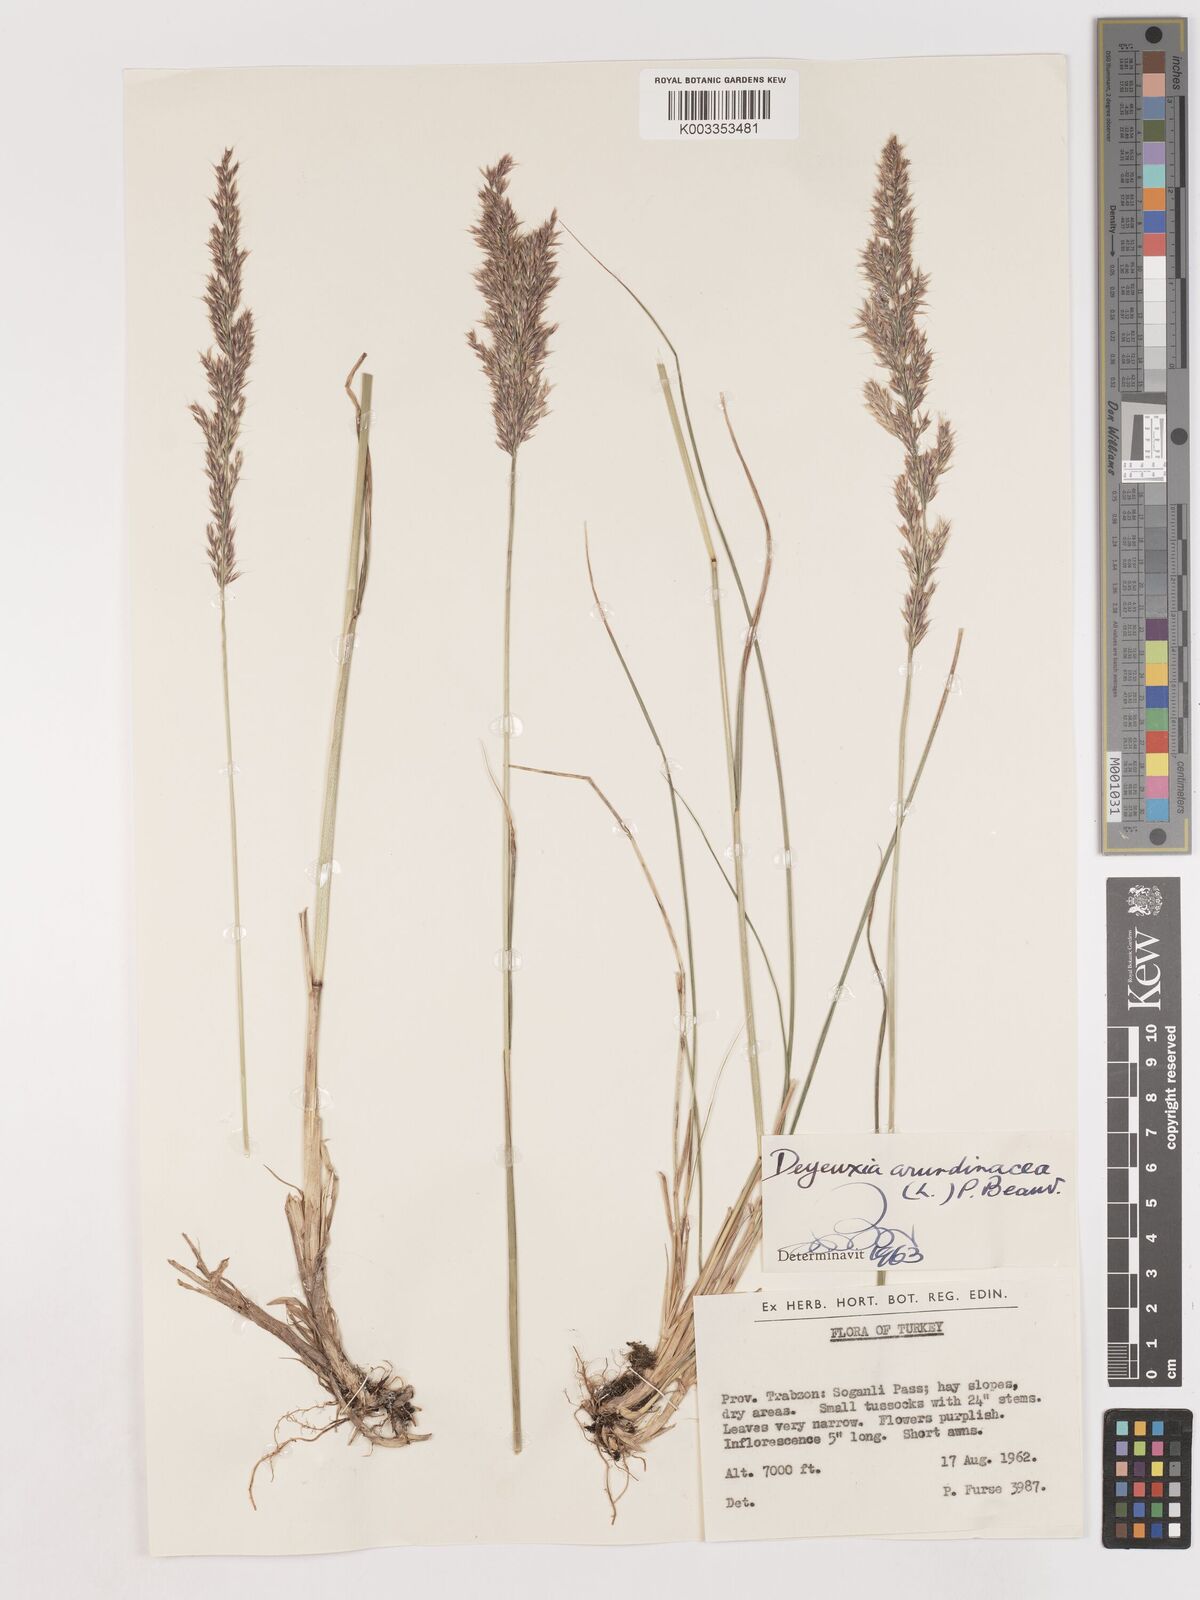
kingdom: Plantae
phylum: Tracheophyta
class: Liliopsida
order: Poales
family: Poaceae
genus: Calamagrostis
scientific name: Calamagrostis
